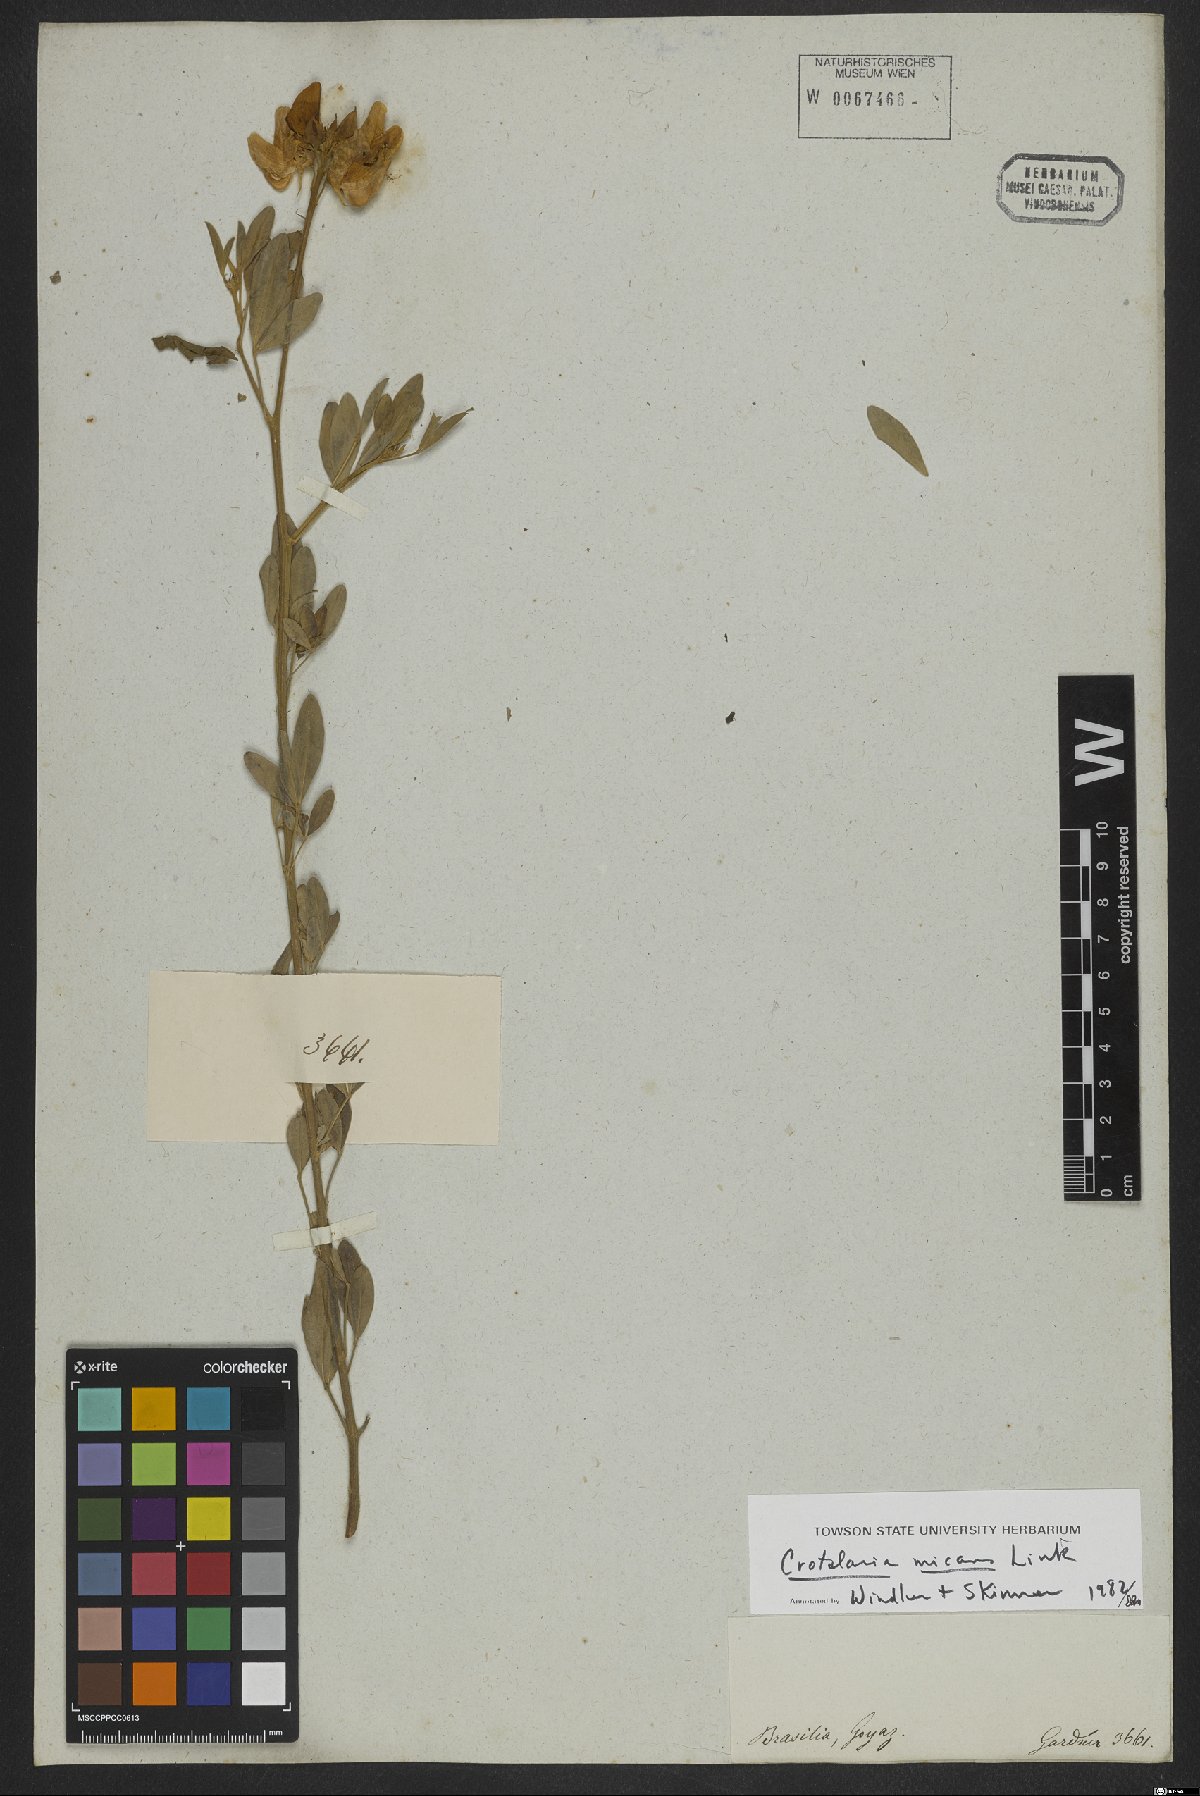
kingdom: Plantae
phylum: Tracheophyta
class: Magnoliopsida
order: Fabales
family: Fabaceae
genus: Crotalaria
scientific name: Crotalaria micans
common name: Caracas rattlebox
